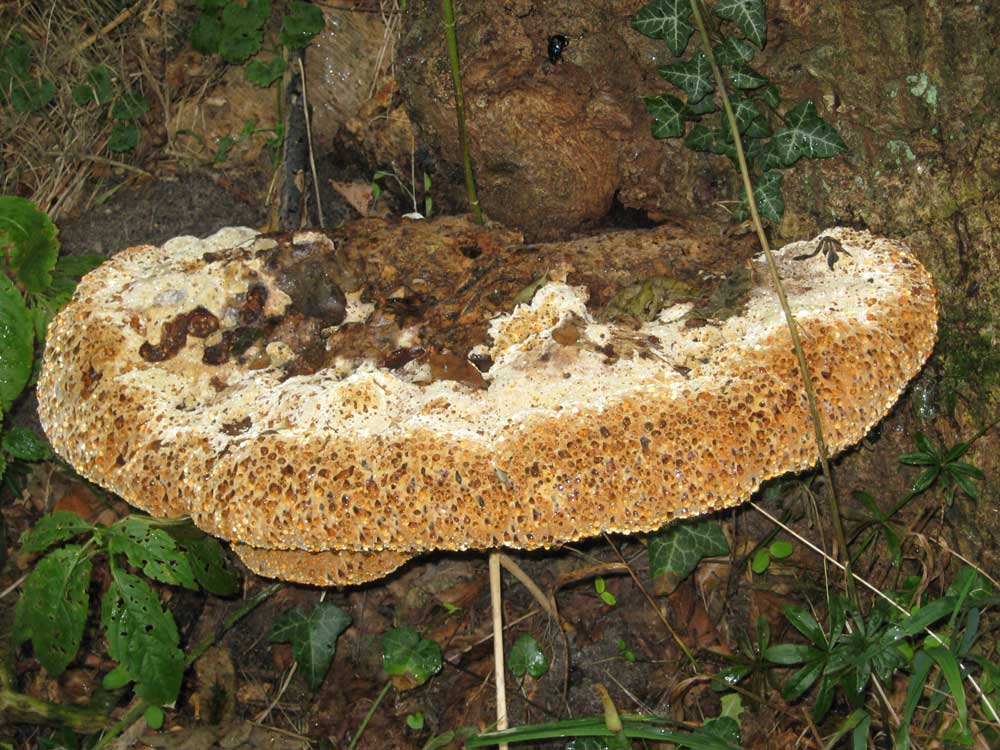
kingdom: Fungi
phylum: Basidiomycota
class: Agaricomycetes
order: Hymenochaetales
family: Hymenochaetaceae
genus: Pseudoinonotus
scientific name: Pseudoinonotus dryadeus
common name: ege-spejlporesvamp
